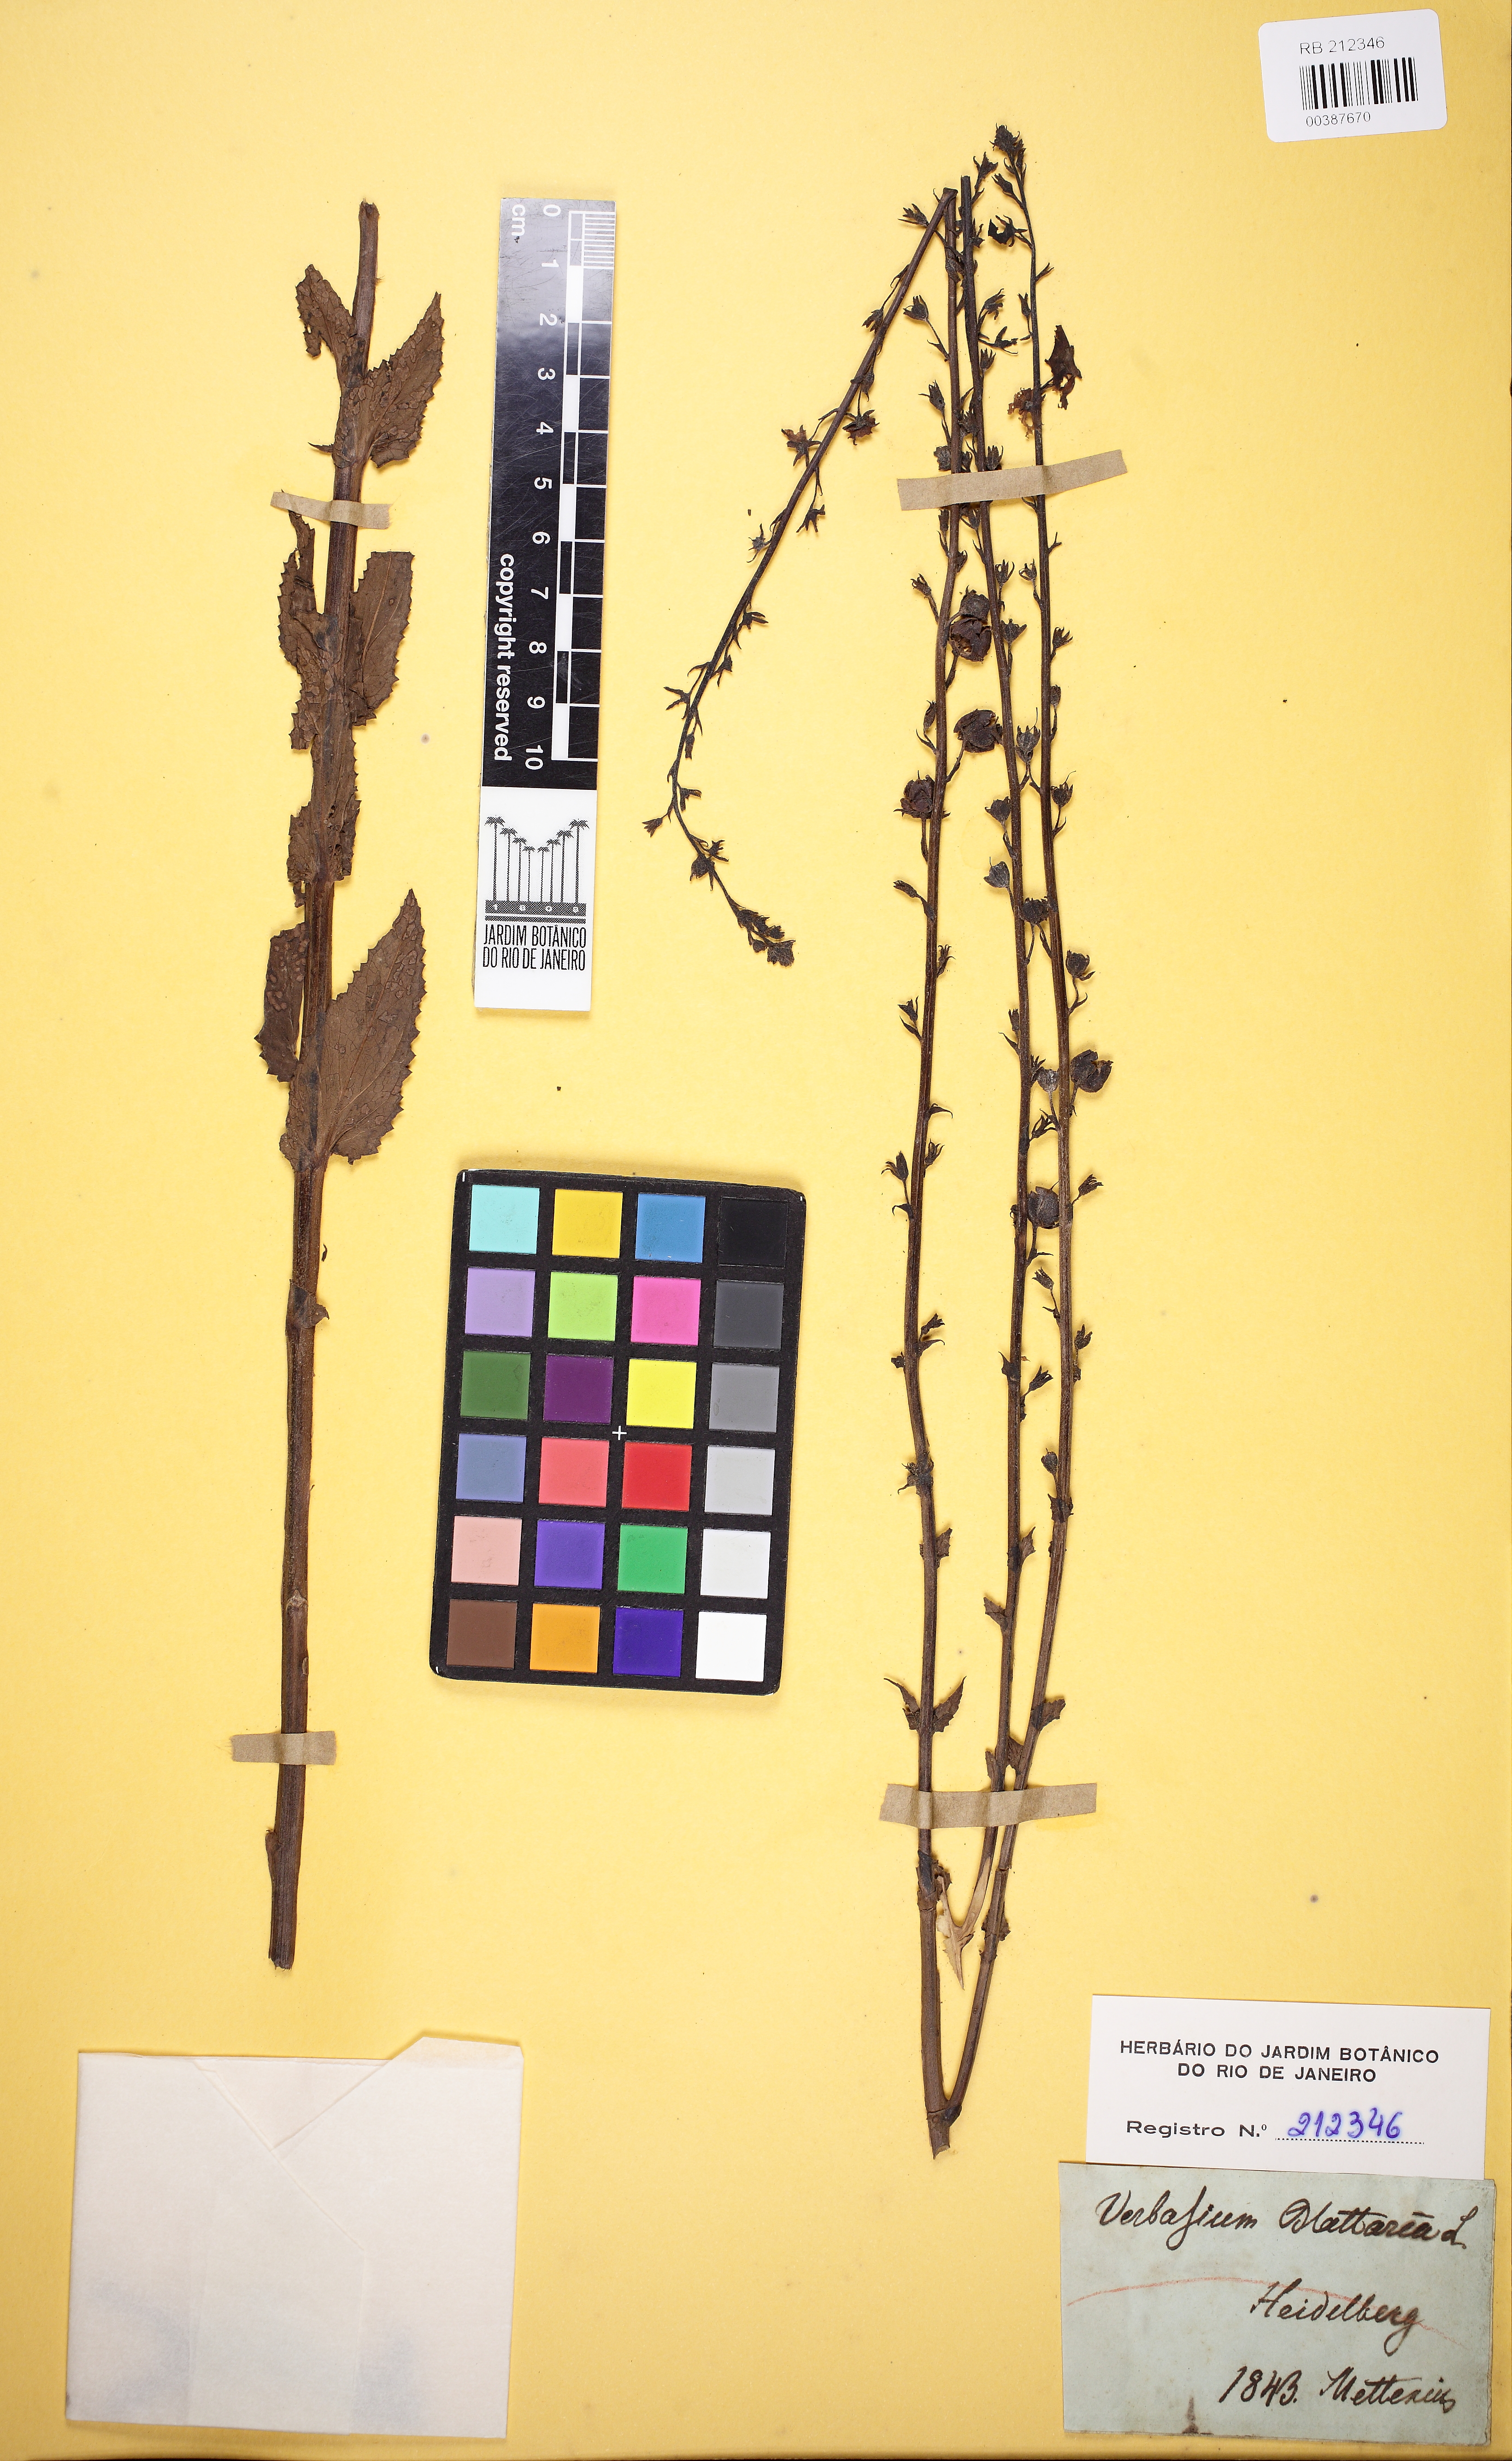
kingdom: Plantae
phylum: Tracheophyta
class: Magnoliopsida
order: Lamiales
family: Scrophulariaceae
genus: Verbascum
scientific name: Verbascum blattaria
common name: Moth mullein
